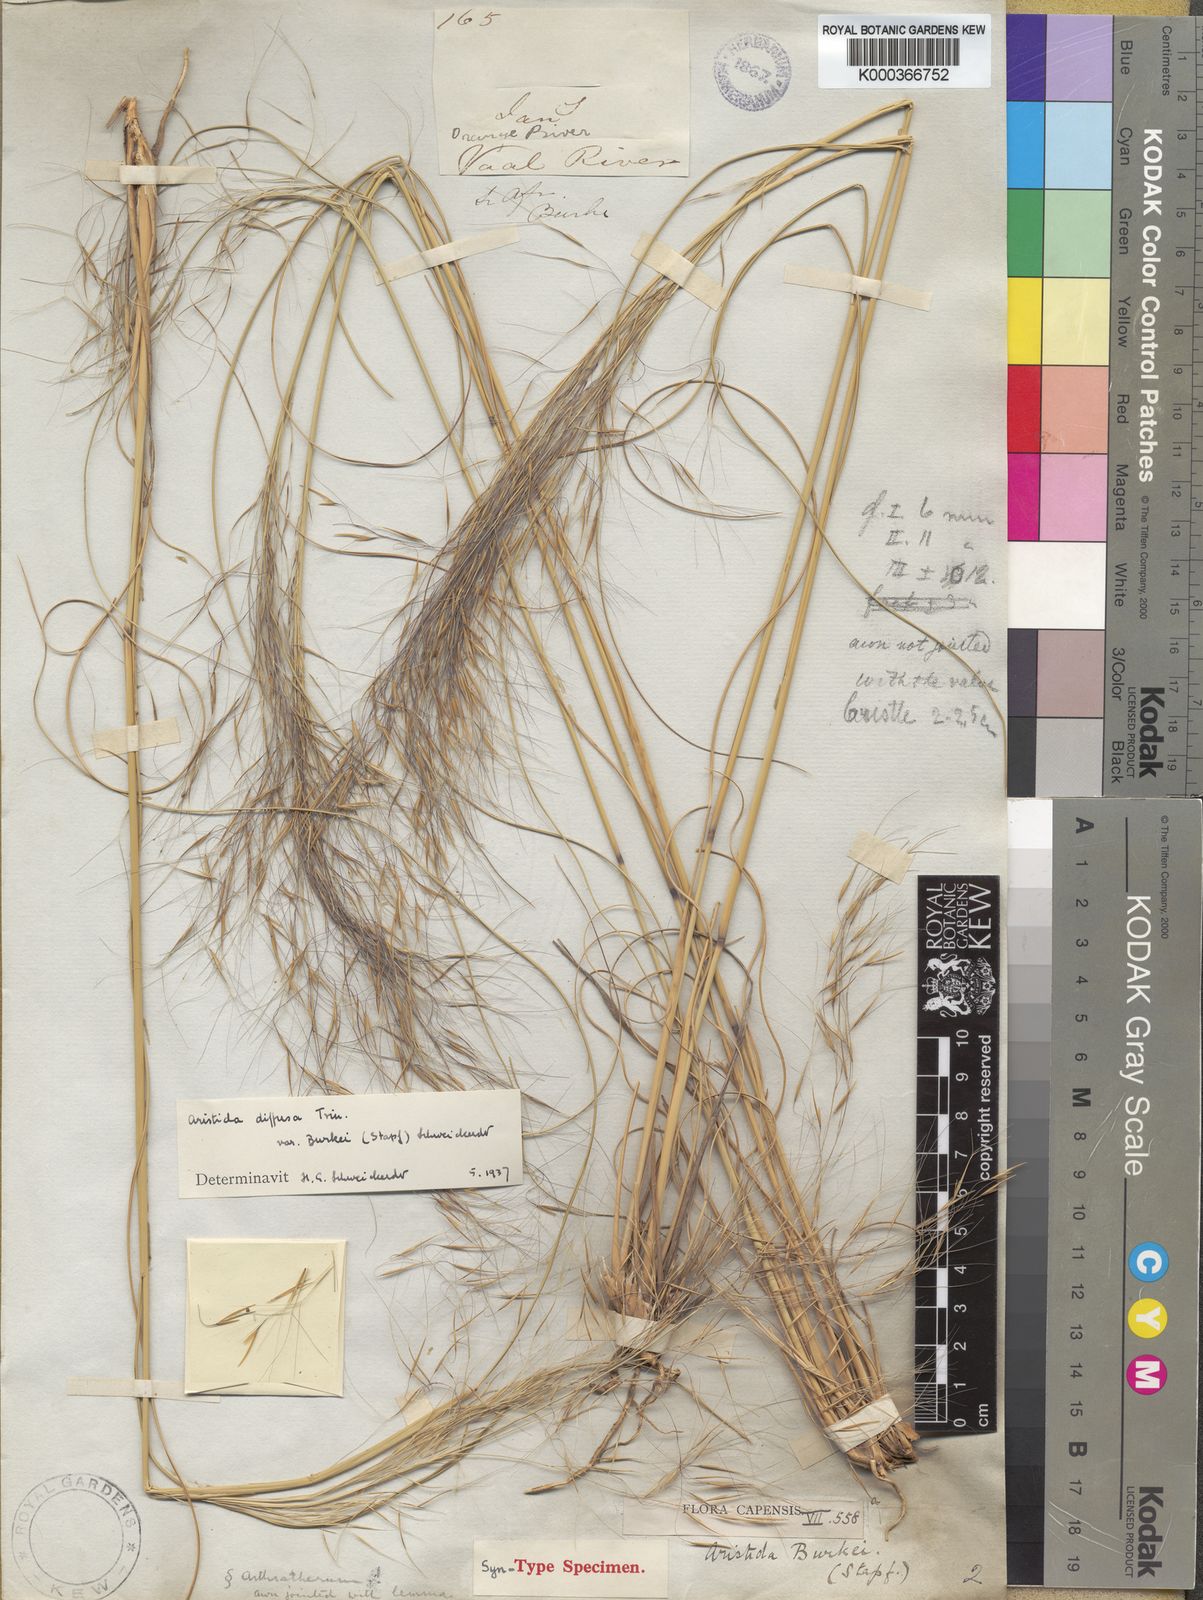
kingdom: Plantae
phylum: Tracheophyta
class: Liliopsida
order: Poales
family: Poaceae
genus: Aristida
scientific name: Aristida diffusa
